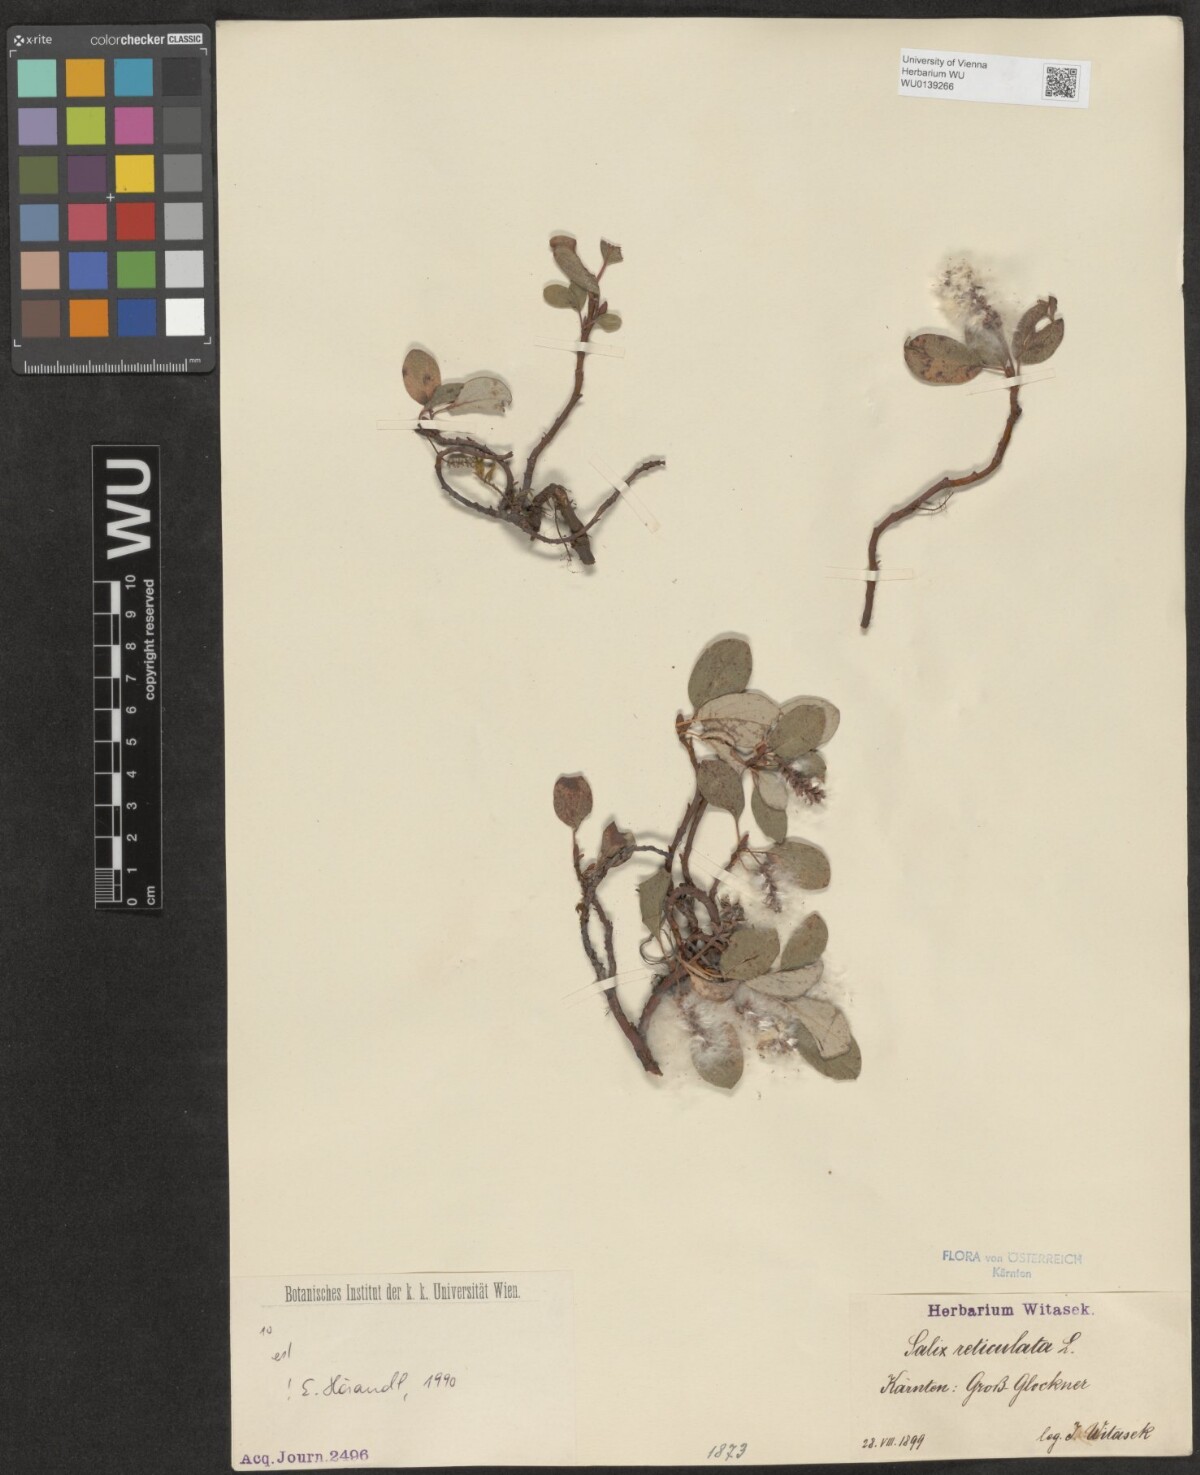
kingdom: Plantae
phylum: Tracheophyta
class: Magnoliopsida
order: Malpighiales
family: Salicaceae
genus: Salix
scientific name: Salix reticulata
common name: Net-leaved willow
